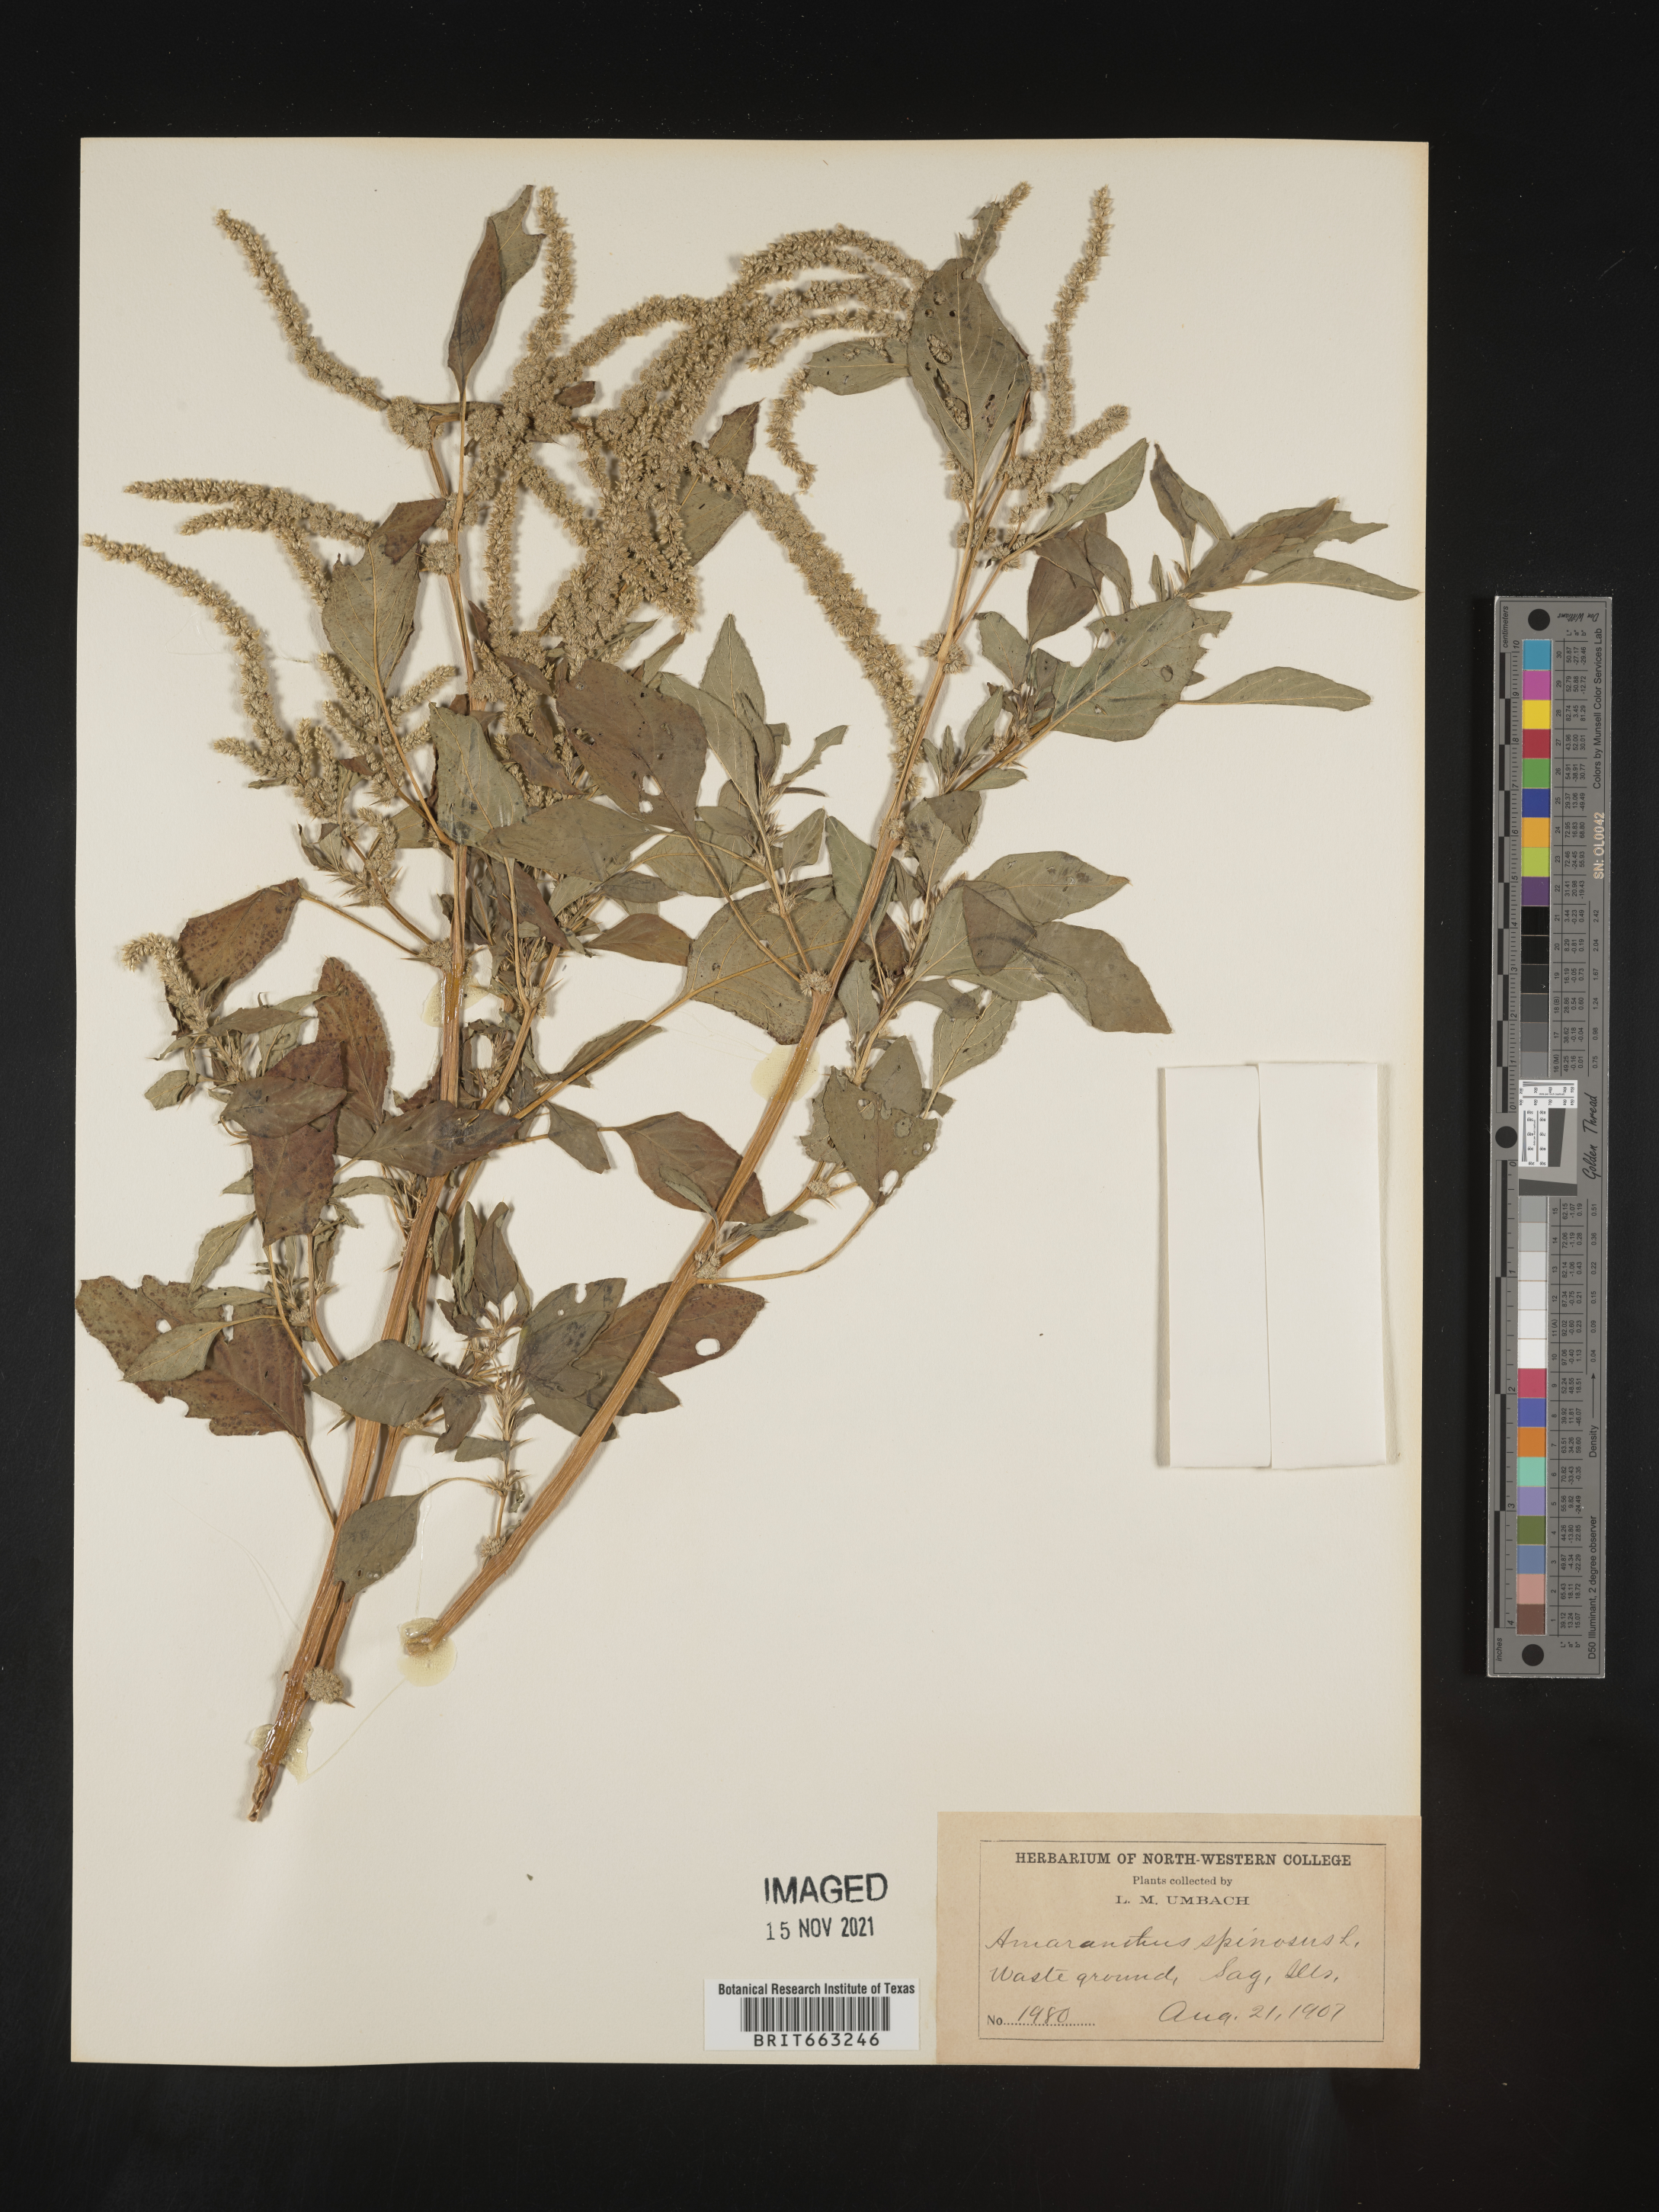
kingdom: Plantae
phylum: Tracheophyta
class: Magnoliopsida
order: Caryophyllales
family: Amaranthaceae
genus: Amaranthus
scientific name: Amaranthus spinosus
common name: Spiny amaranth
